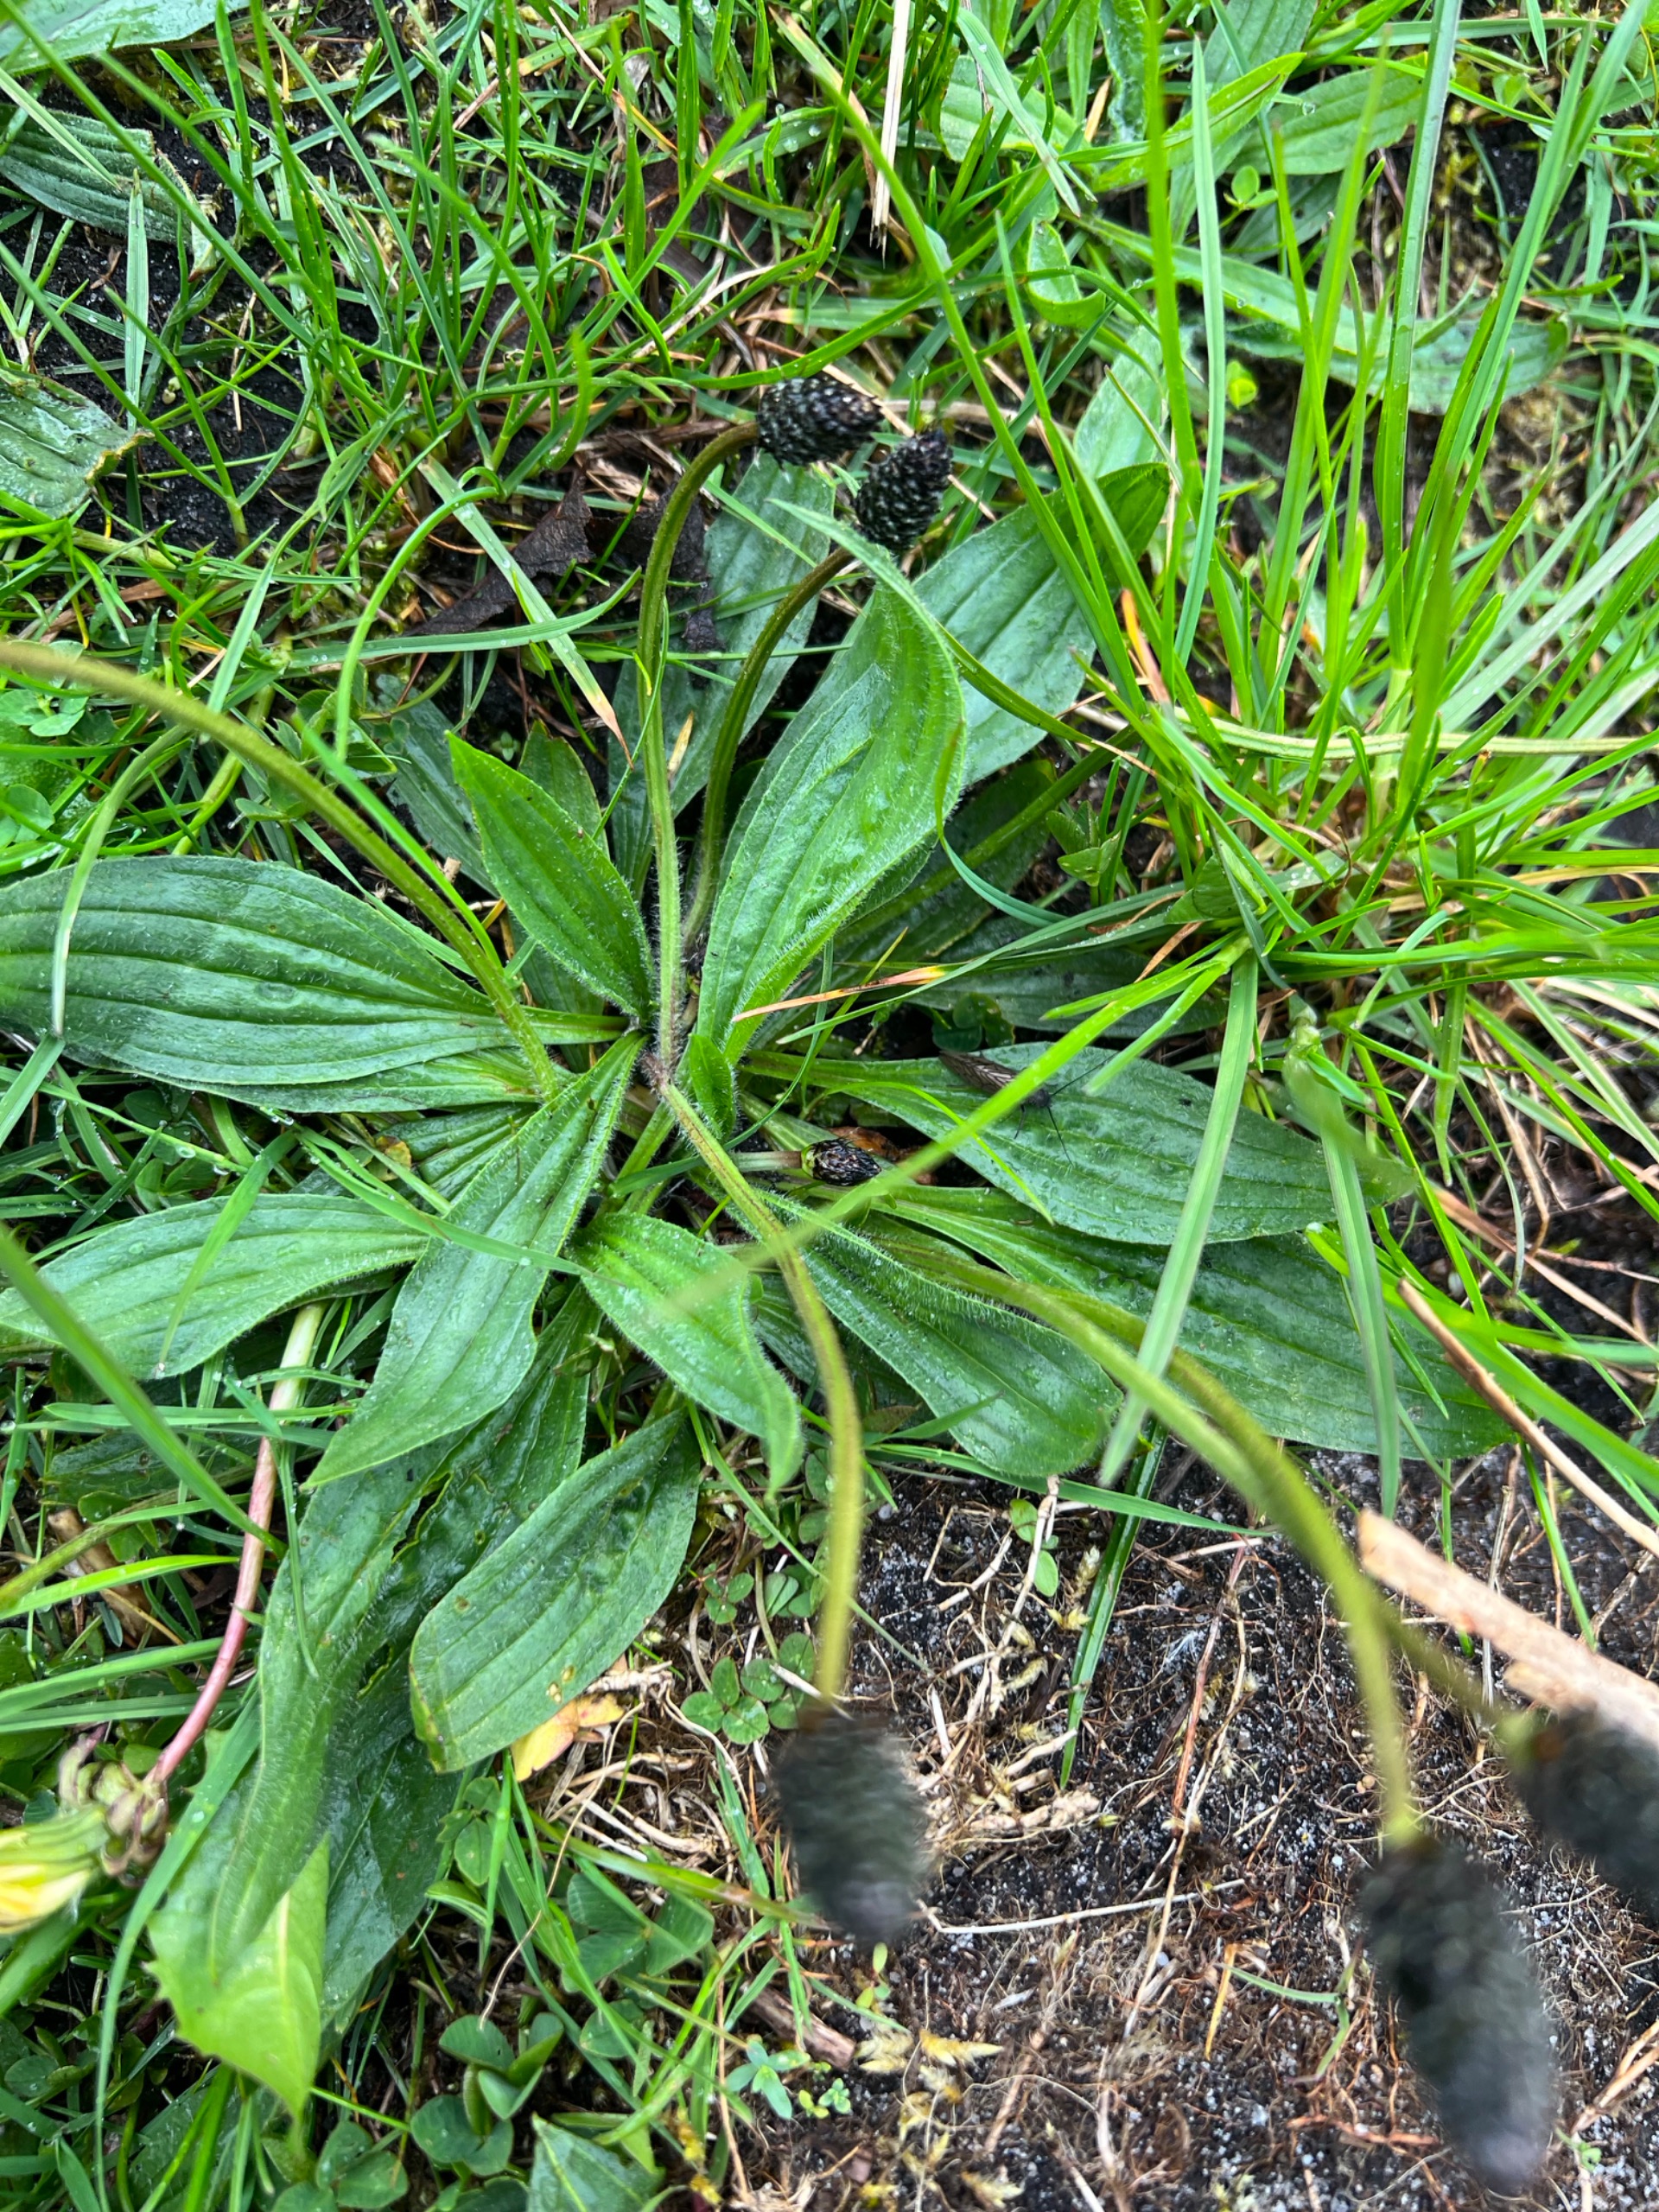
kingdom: Plantae
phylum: Tracheophyta
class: Magnoliopsida
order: Lamiales
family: Plantaginaceae
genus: Plantago
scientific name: Plantago lanceolata
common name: Lancet-vejbred
